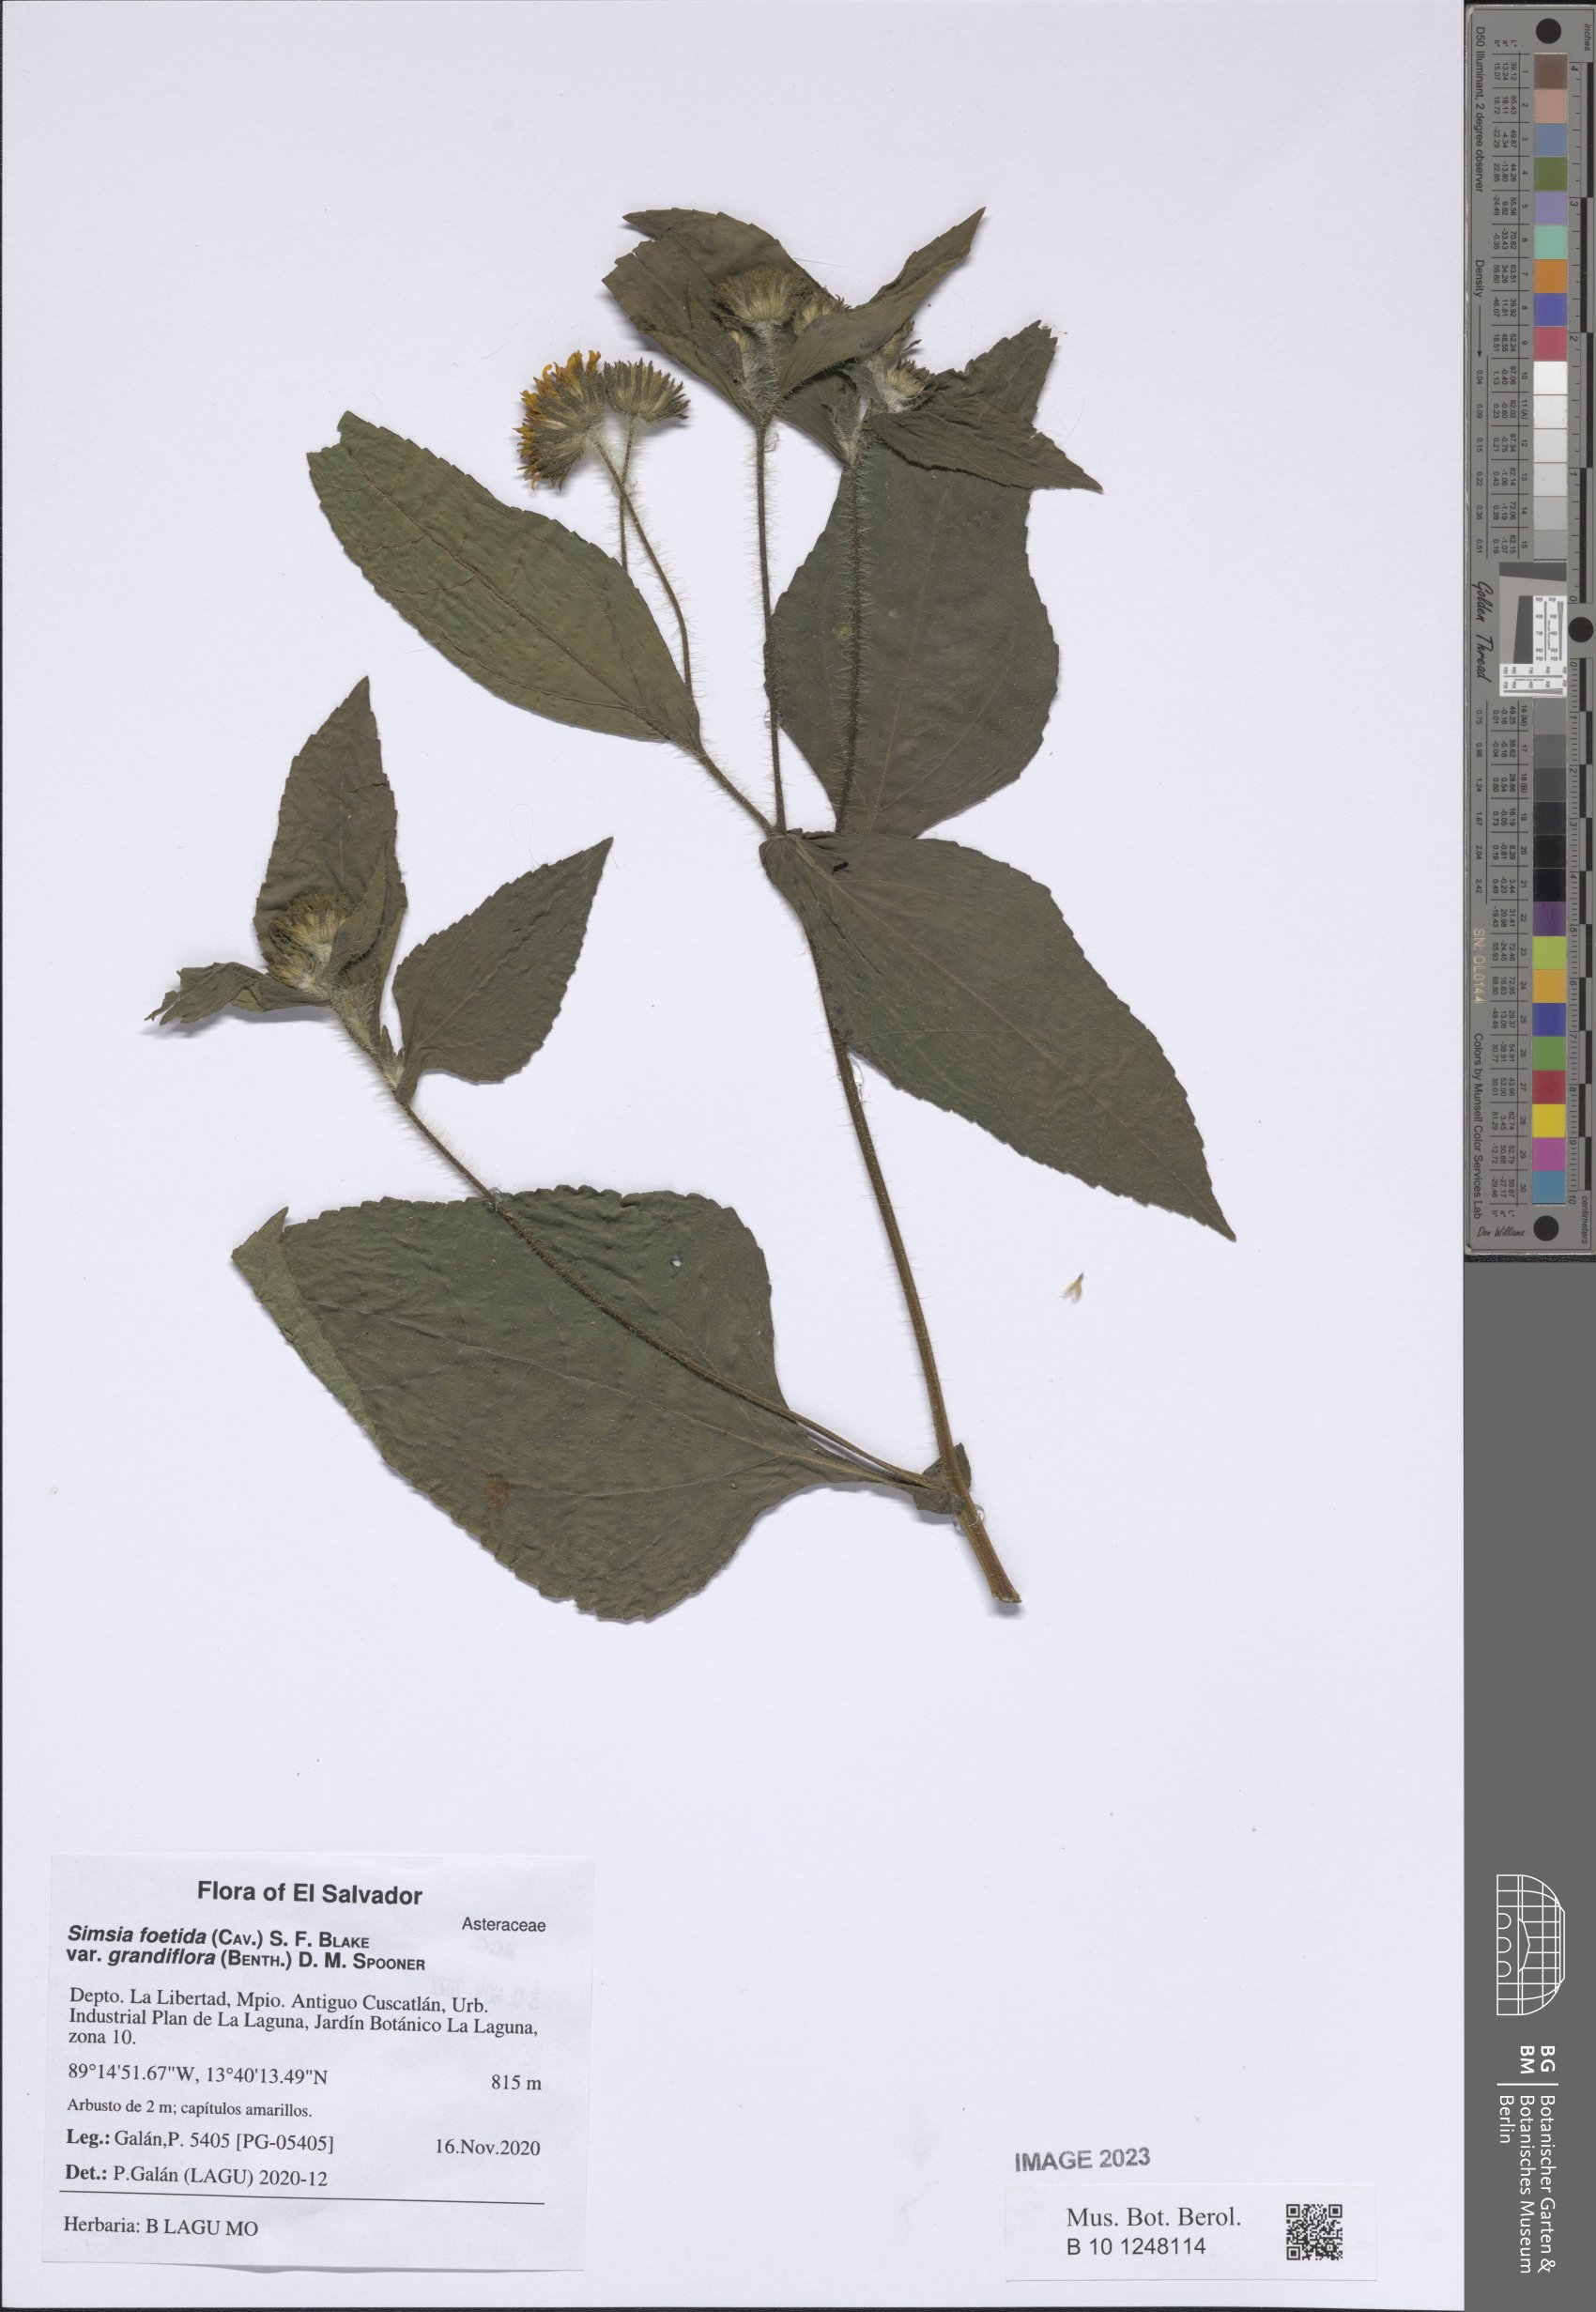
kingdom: Plantae
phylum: Tracheophyta
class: Magnoliopsida
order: Asterales
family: Asteraceae
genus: Simsia
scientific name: Simsia foetida
